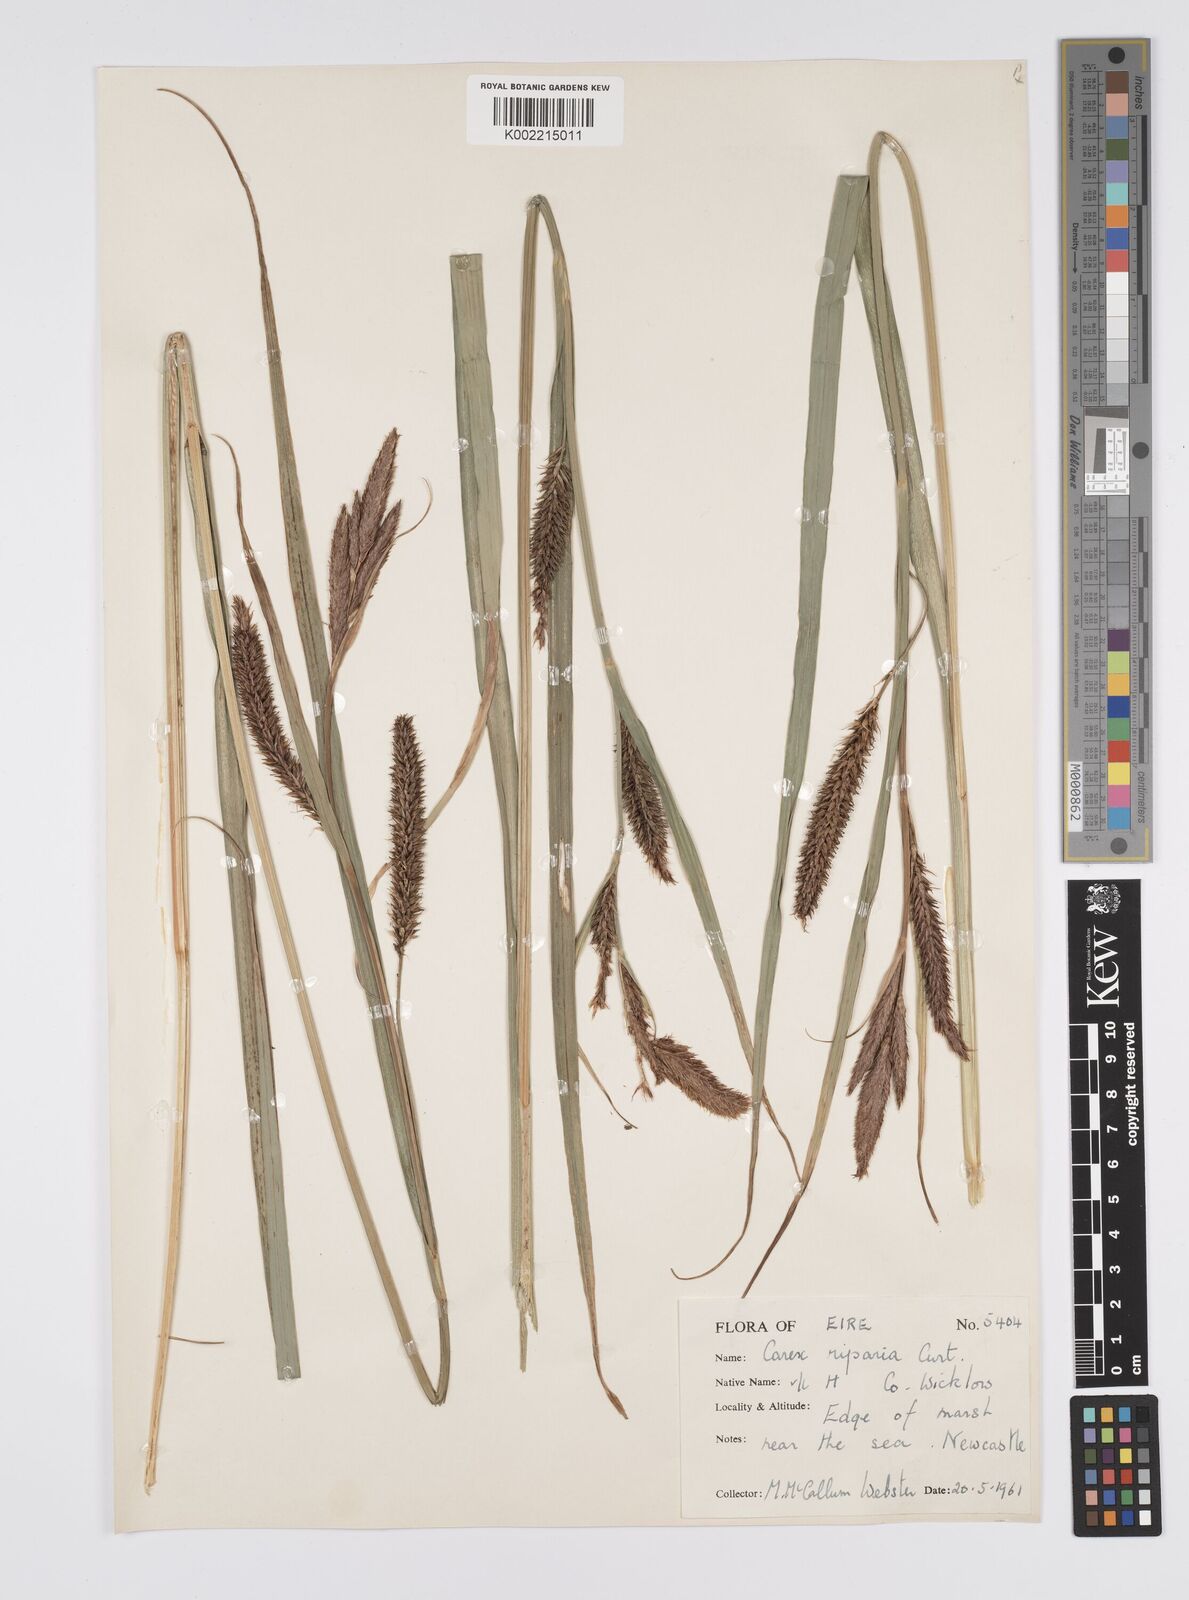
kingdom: Plantae
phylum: Tracheophyta
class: Liliopsida
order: Poales
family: Cyperaceae
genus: Carex
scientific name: Carex riparia
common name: Greater pond-sedge
